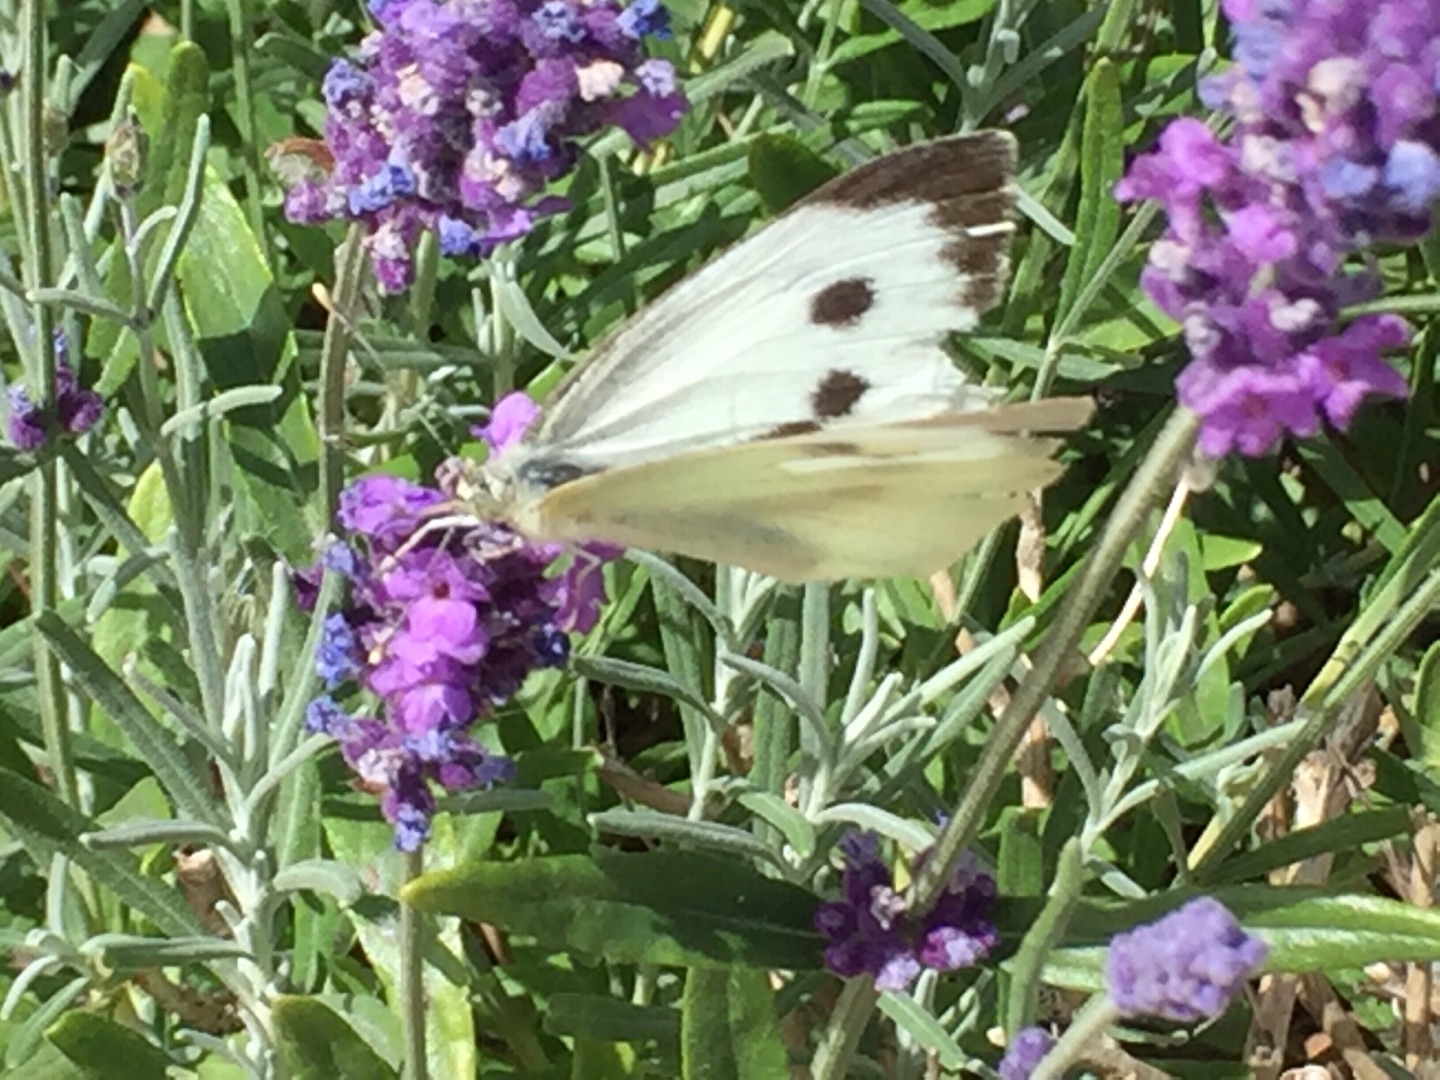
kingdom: Animalia
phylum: Arthropoda
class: Insecta
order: Lepidoptera
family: Pieridae
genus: Pieris
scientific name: Pieris brassicae
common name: Stor kålsommerfugl
